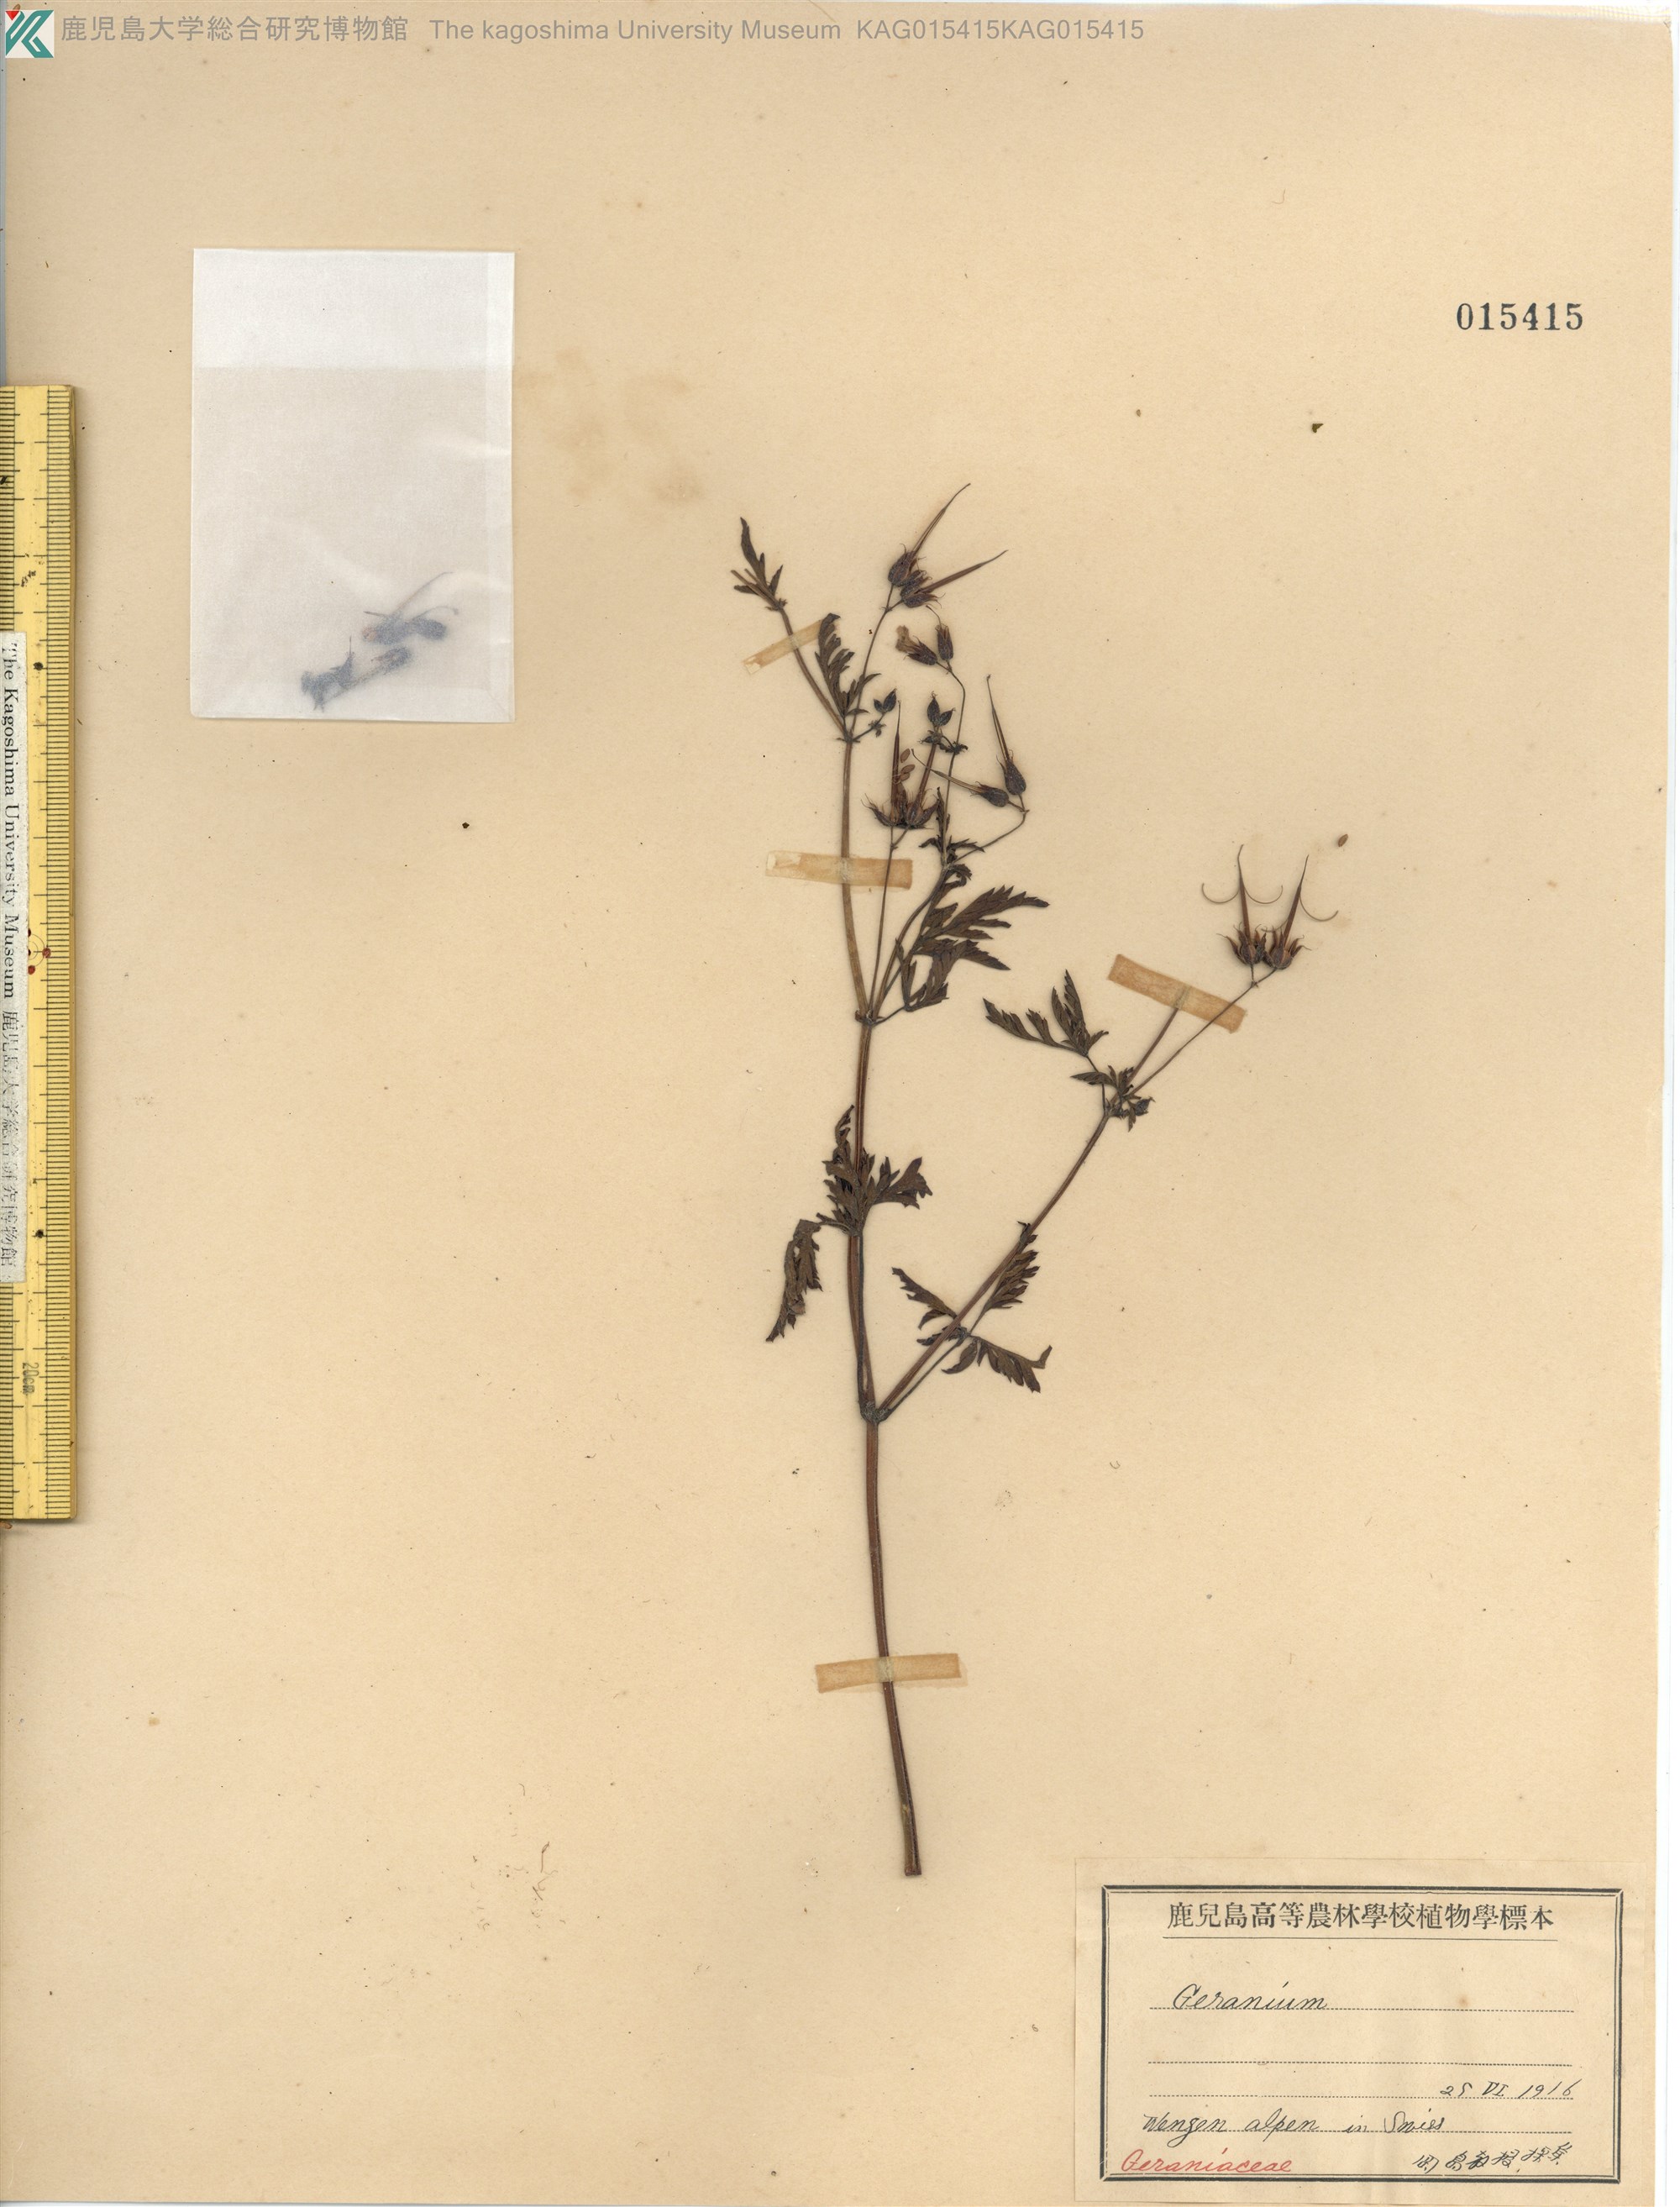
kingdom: Plantae
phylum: Tracheophyta
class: Magnoliopsida
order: Geraniales
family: Geraniaceae
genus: Geranium
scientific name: Geranium robertianum
